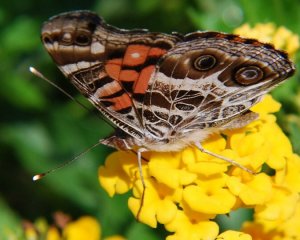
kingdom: Animalia
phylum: Arthropoda
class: Insecta
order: Lepidoptera
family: Nymphalidae
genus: Vanessa
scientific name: Vanessa virginiensis
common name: American Lady
